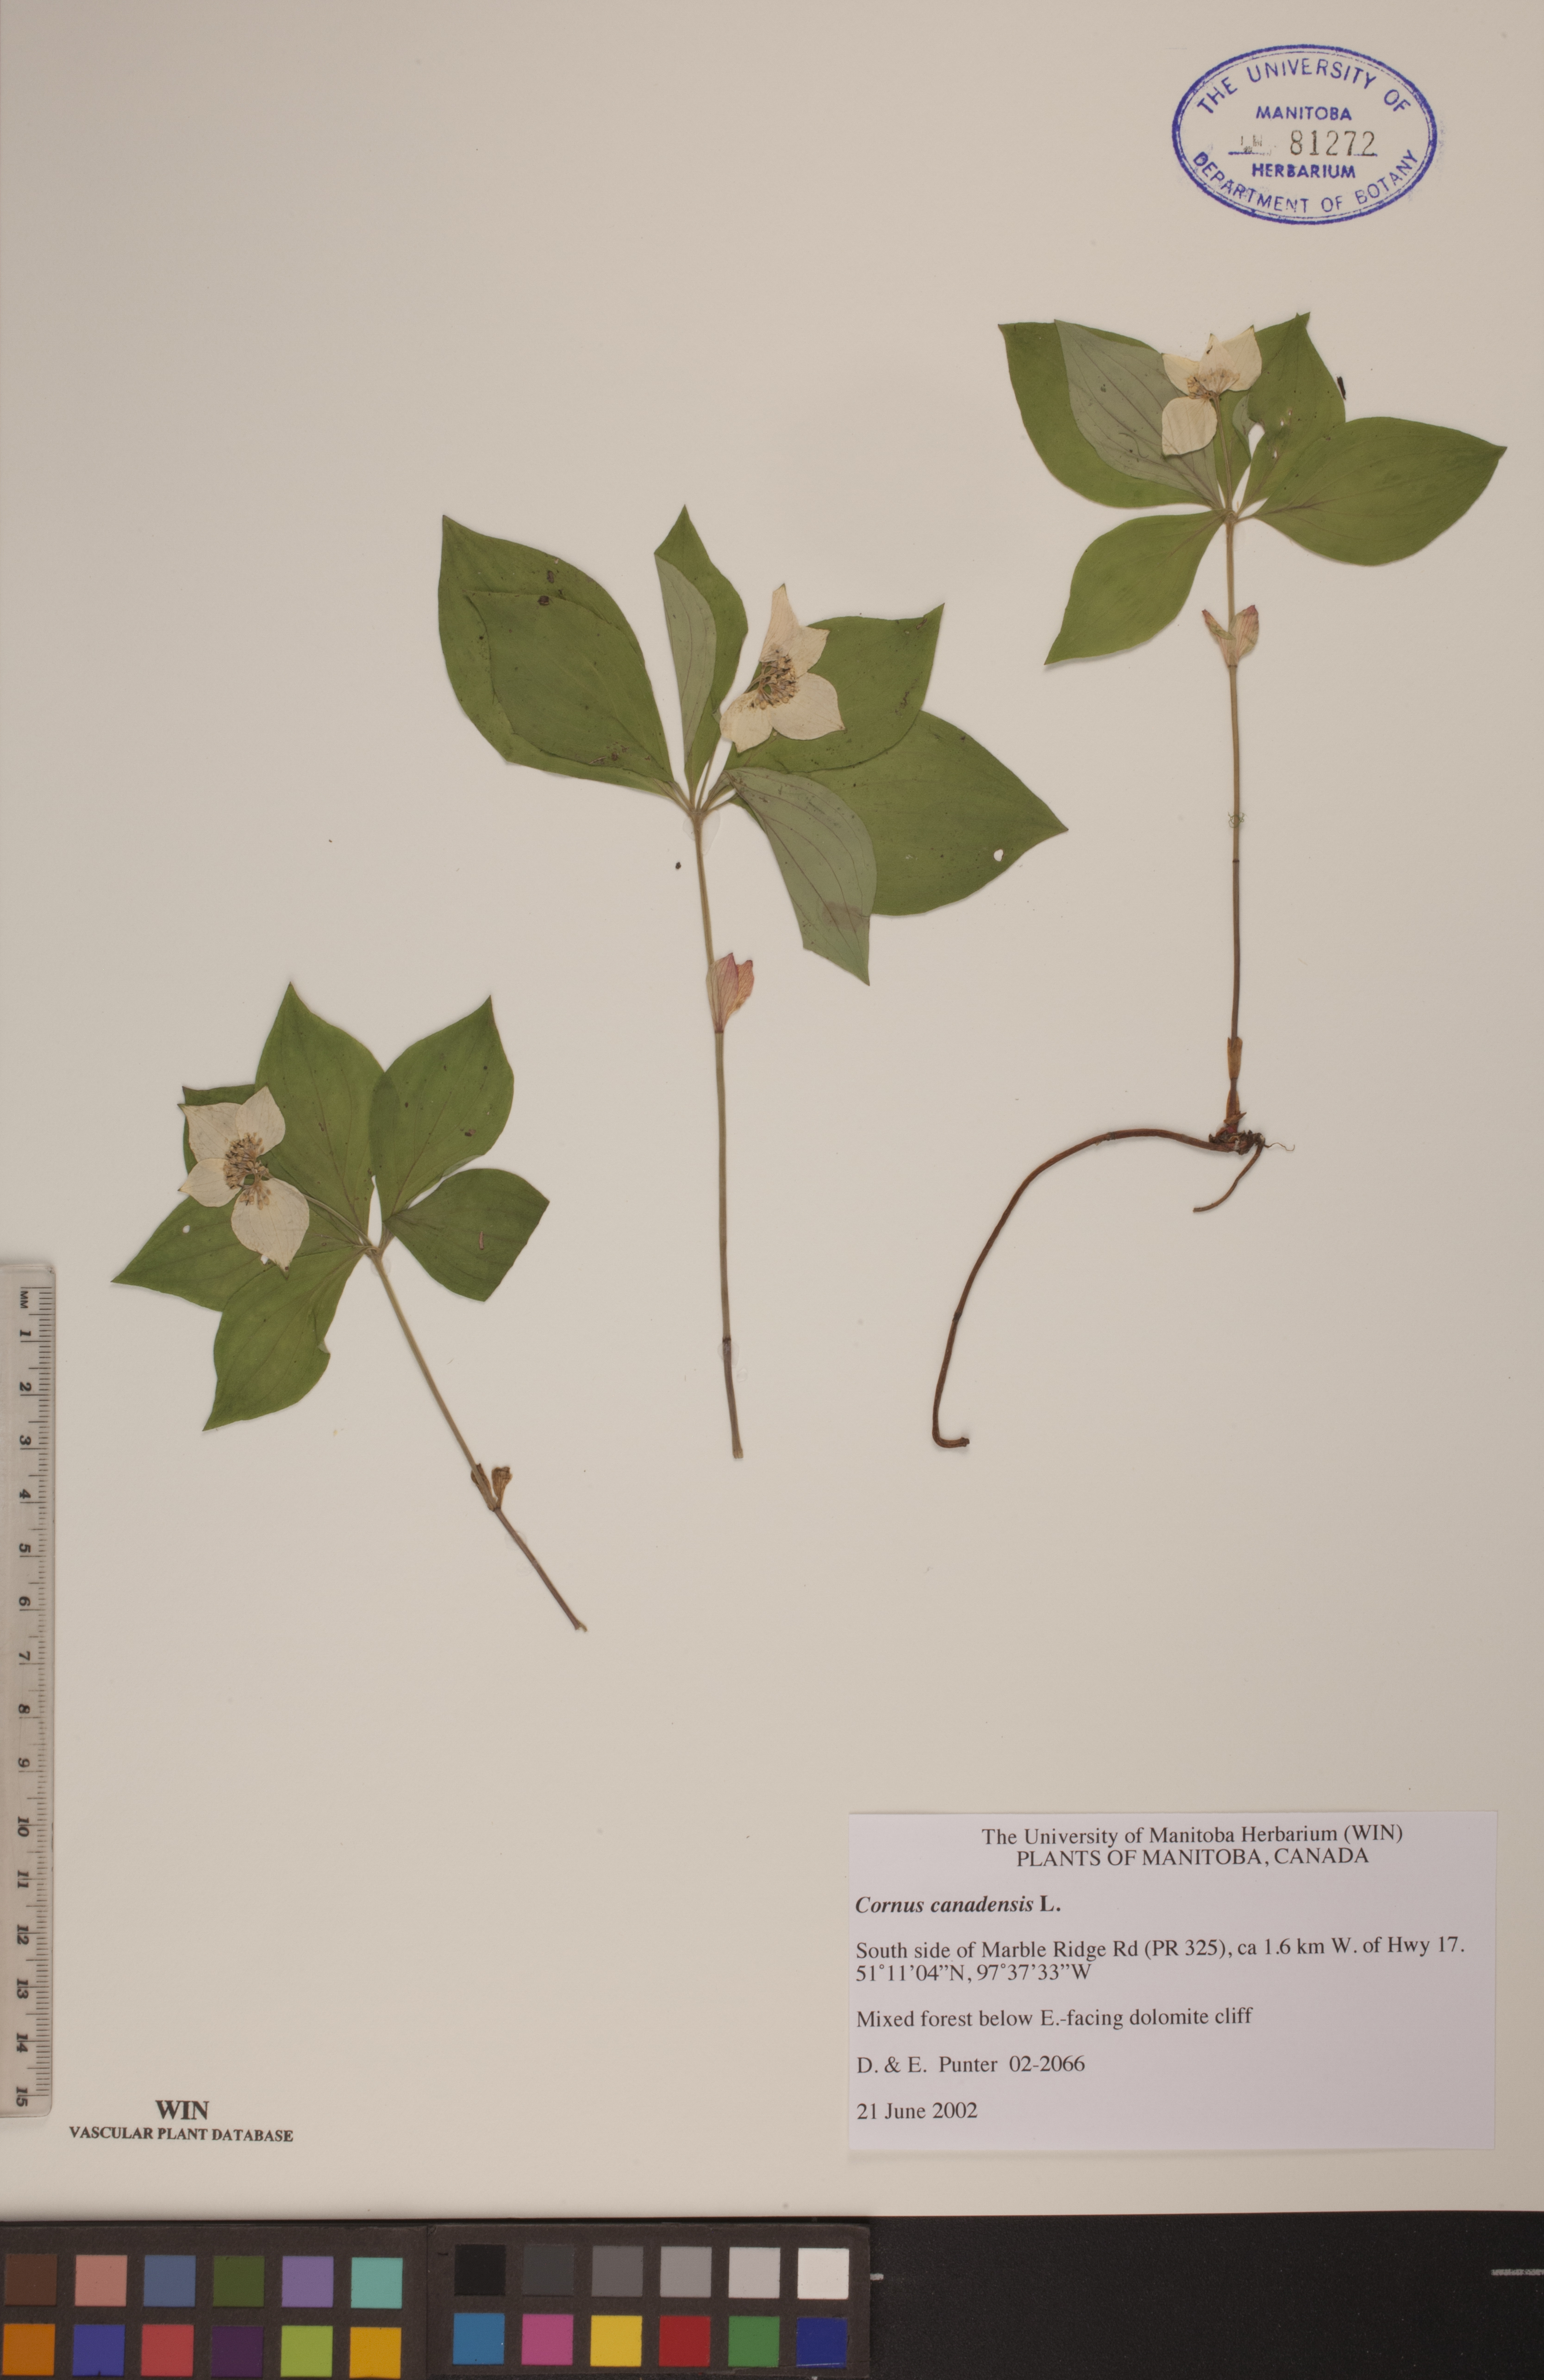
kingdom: Plantae
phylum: Tracheophyta
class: Magnoliopsida
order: Cornales
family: Cornaceae
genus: Cornus
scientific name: Cornus canadensis
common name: Creeping dogwood
